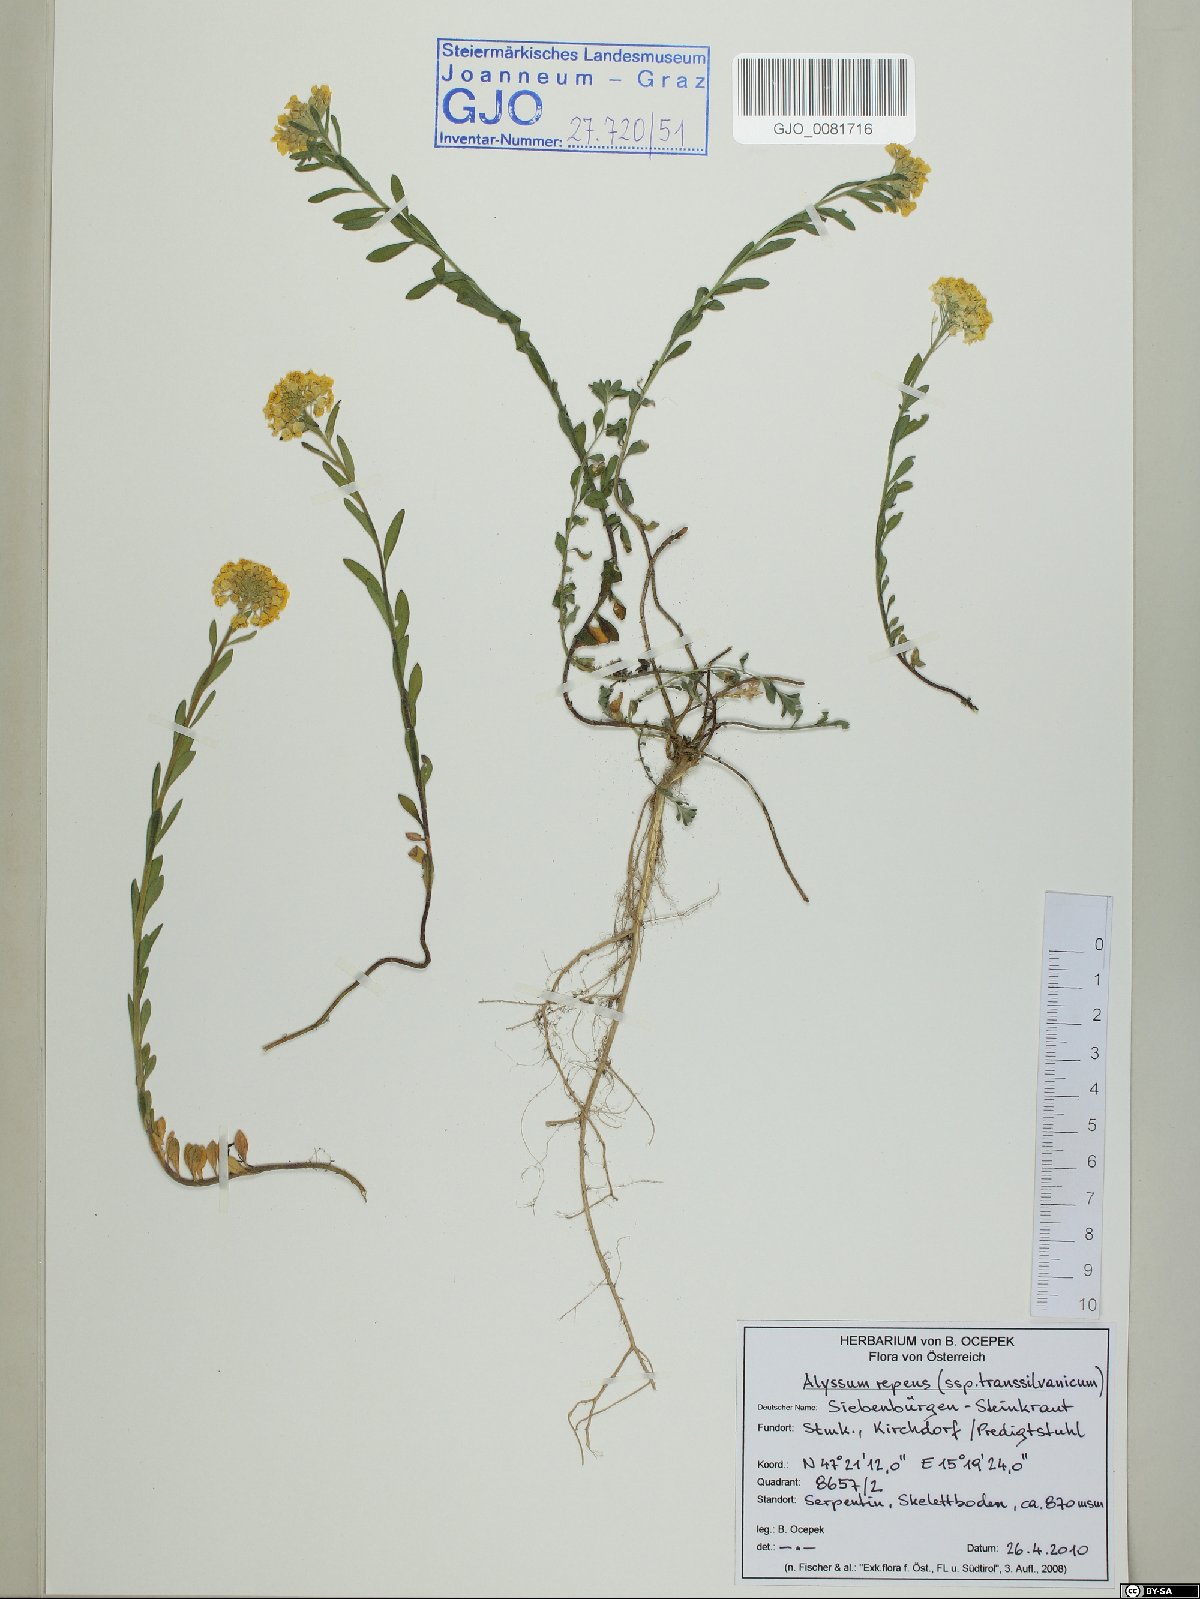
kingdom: Plantae
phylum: Tracheophyta
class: Magnoliopsida
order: Brassicales
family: Brassicaceae
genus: Alyssum
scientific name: Alyssum repens
